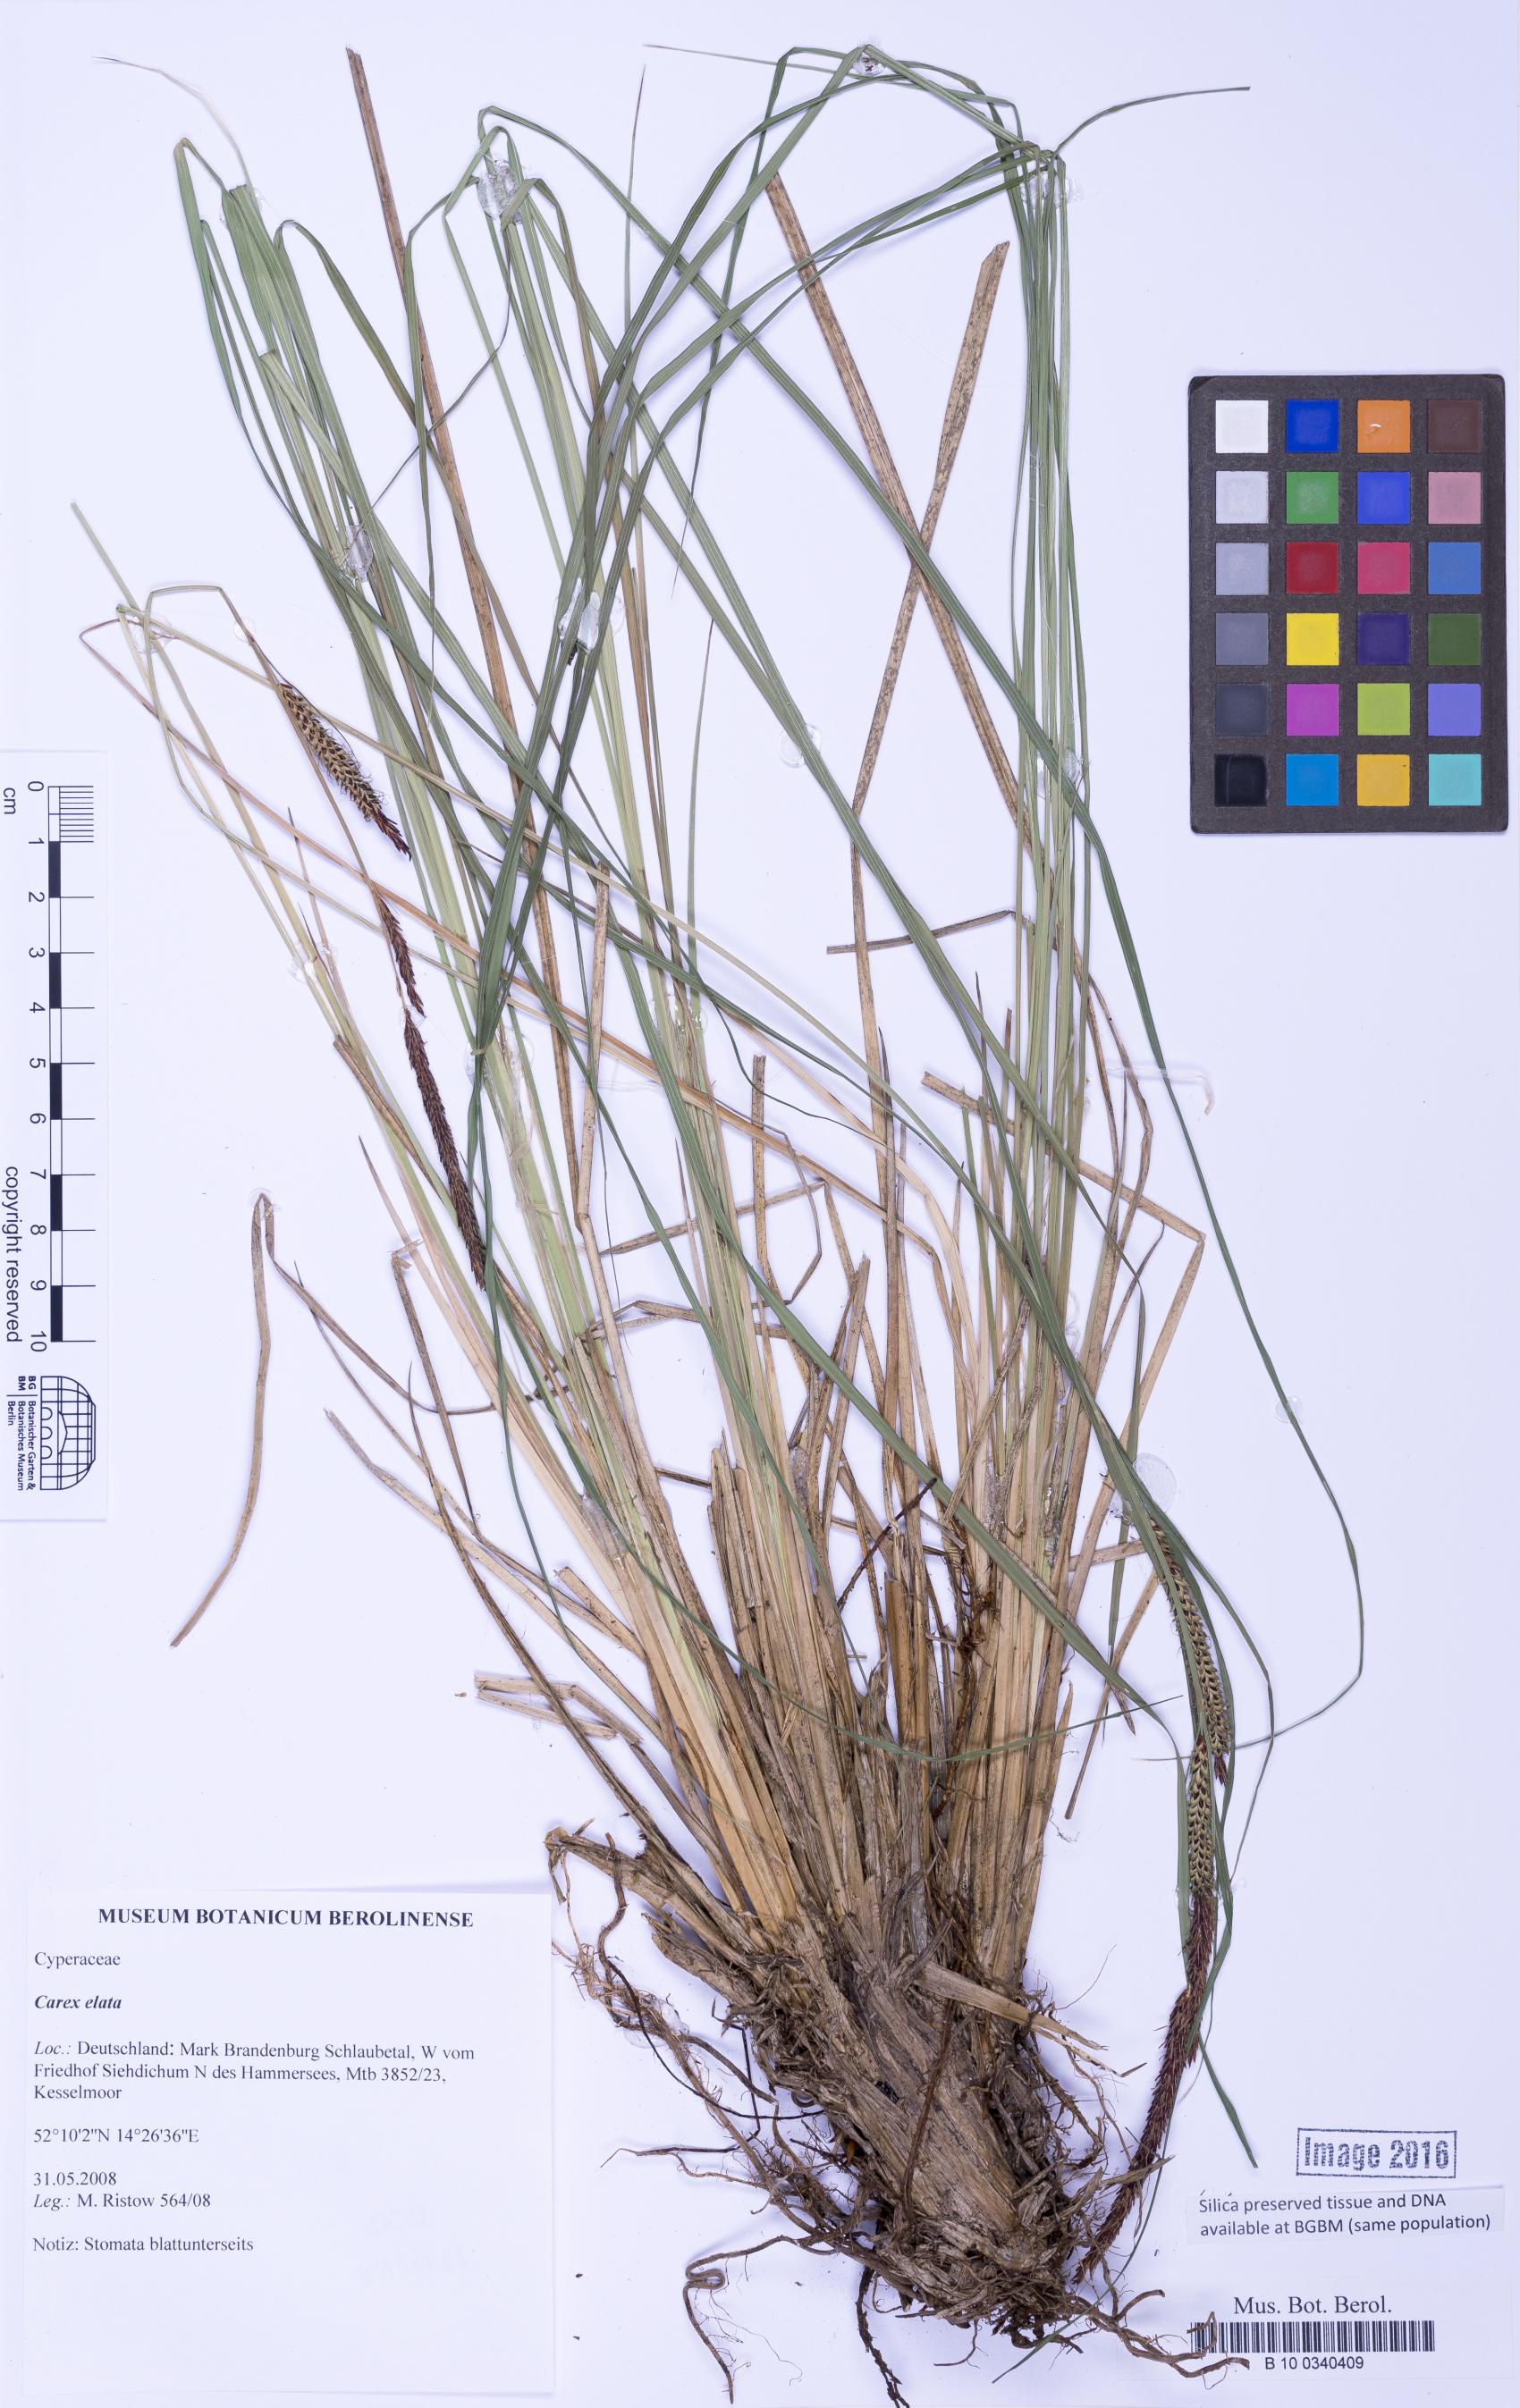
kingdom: Plantae
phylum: Tracheophyta
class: Liliopsida
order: Poales
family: Cyperaceae
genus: Carex
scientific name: Carex elata
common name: Tufted sedge
